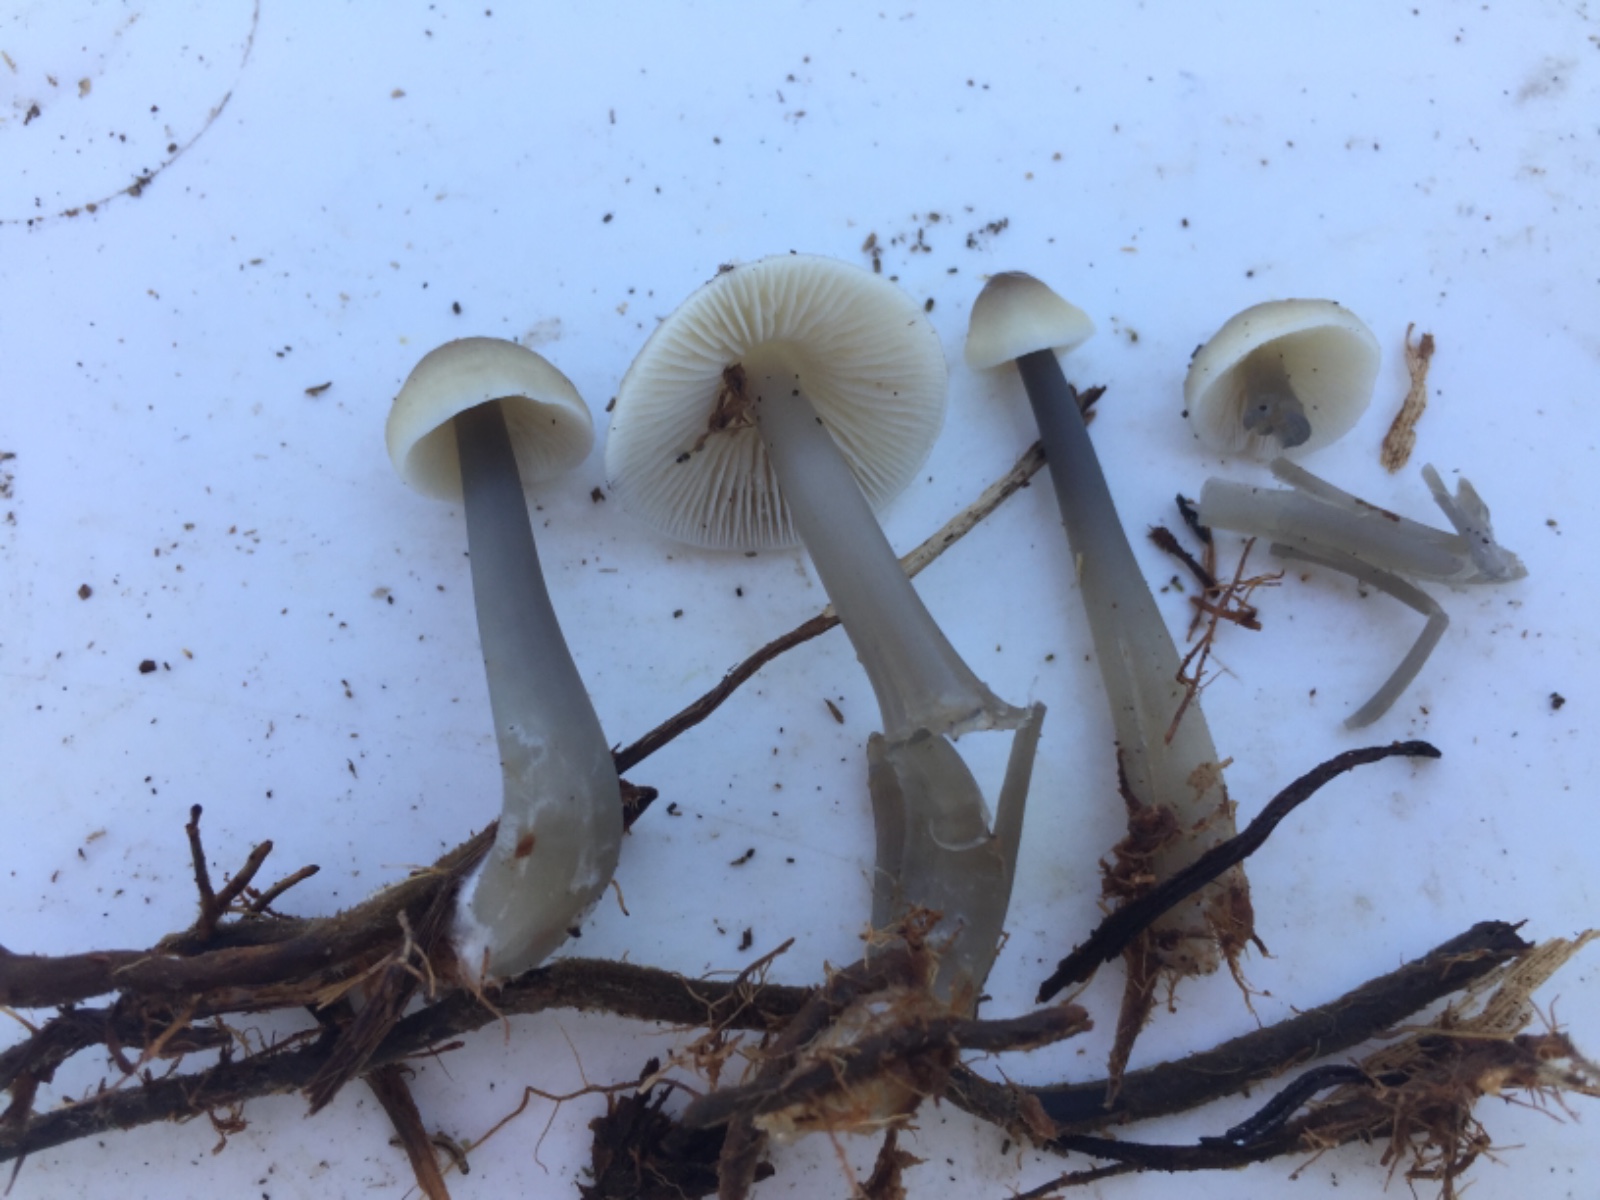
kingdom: Fungi
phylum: Basidiomycota
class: Agaricomycetes
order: Agaricales
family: Mycenaceae
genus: Mycena
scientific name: Mycena galericulata
